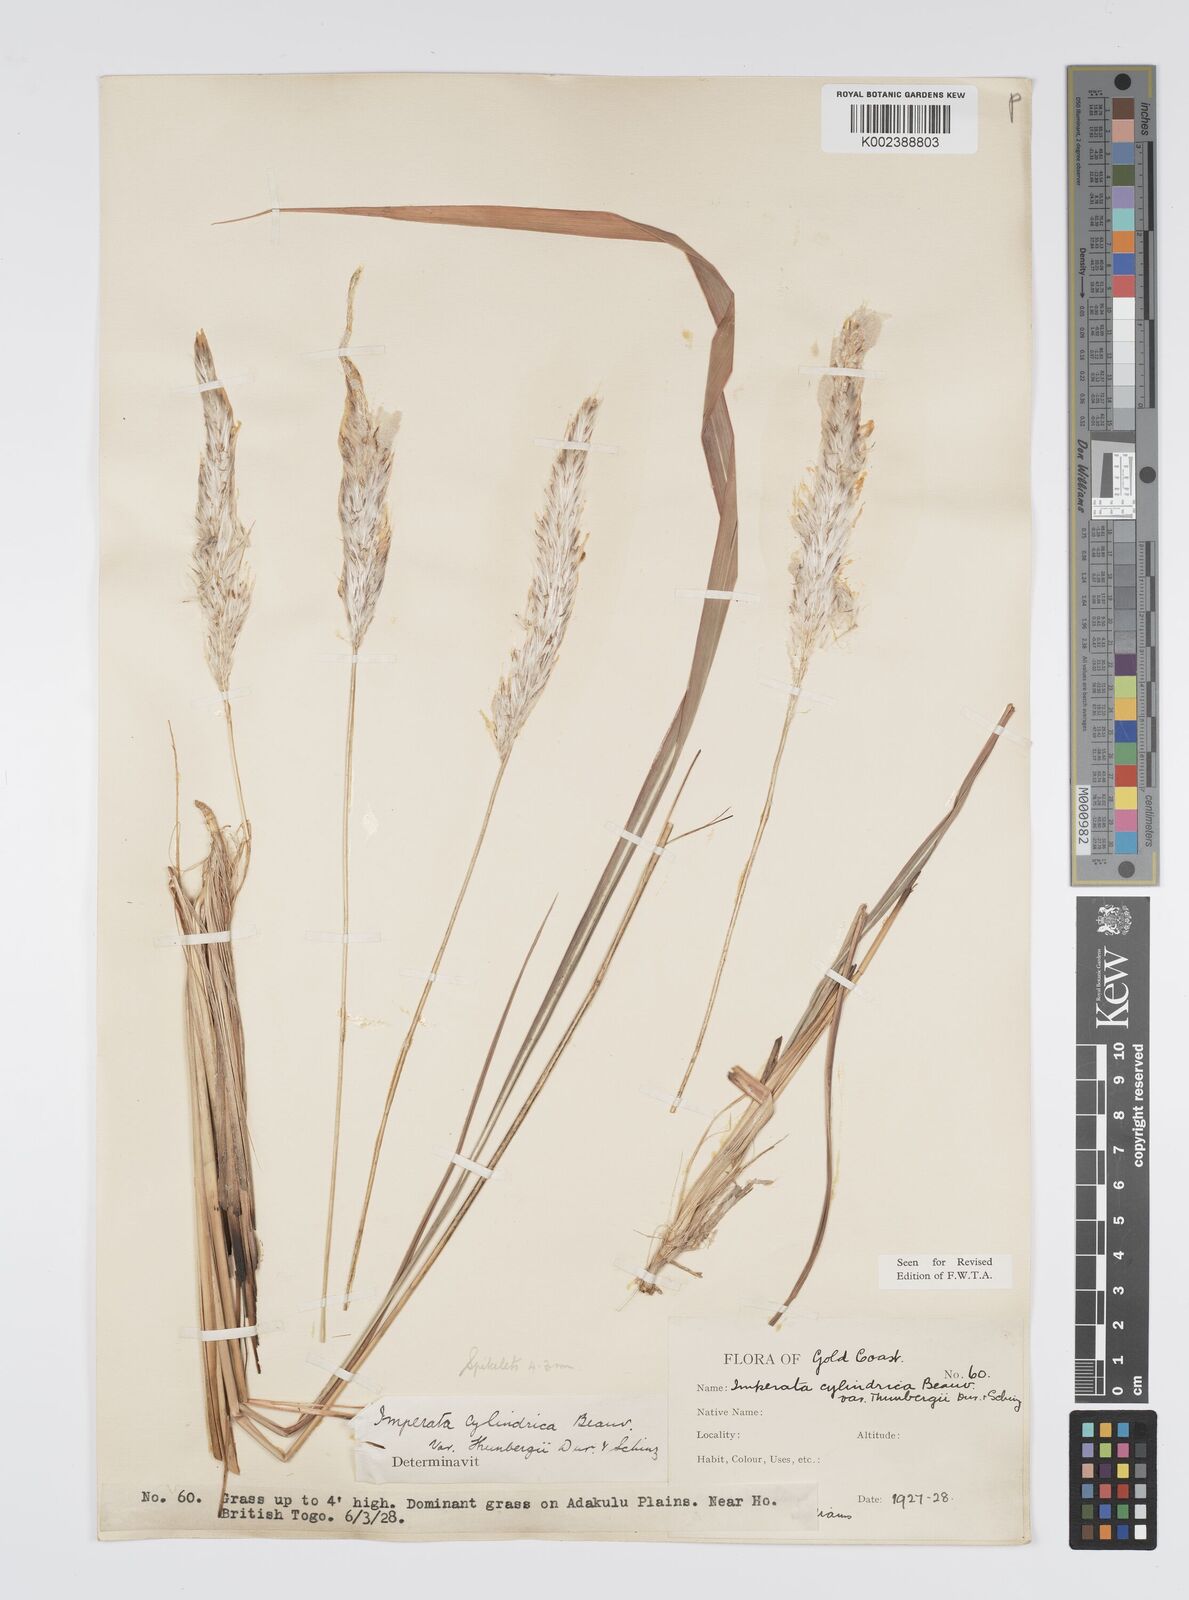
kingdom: Plantae
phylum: Tracheophyta
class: Liliopsida
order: Poales
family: Poaceae
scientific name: Poaceae
